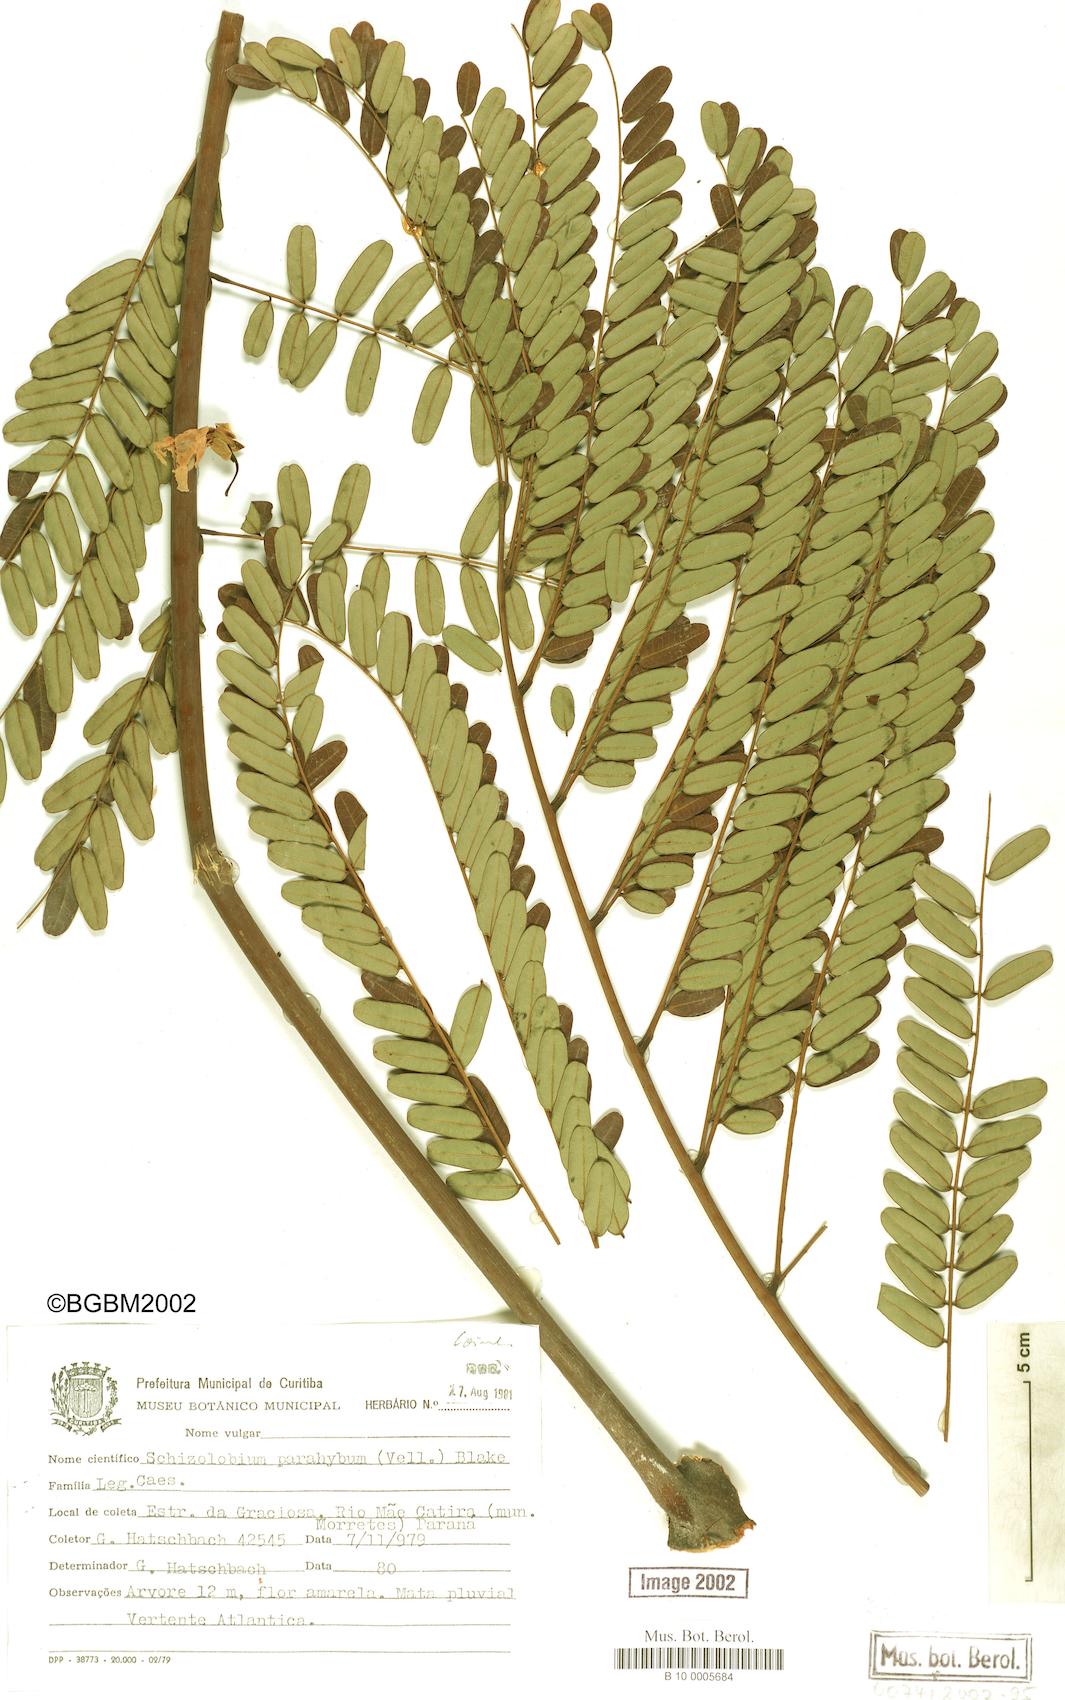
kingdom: Plantae
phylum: Tracheophyta
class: Magnoliopsida
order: Fabales
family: Fabaceae
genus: Schizolobium
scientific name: Schizolobium parahyba
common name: Brazilian firetree
